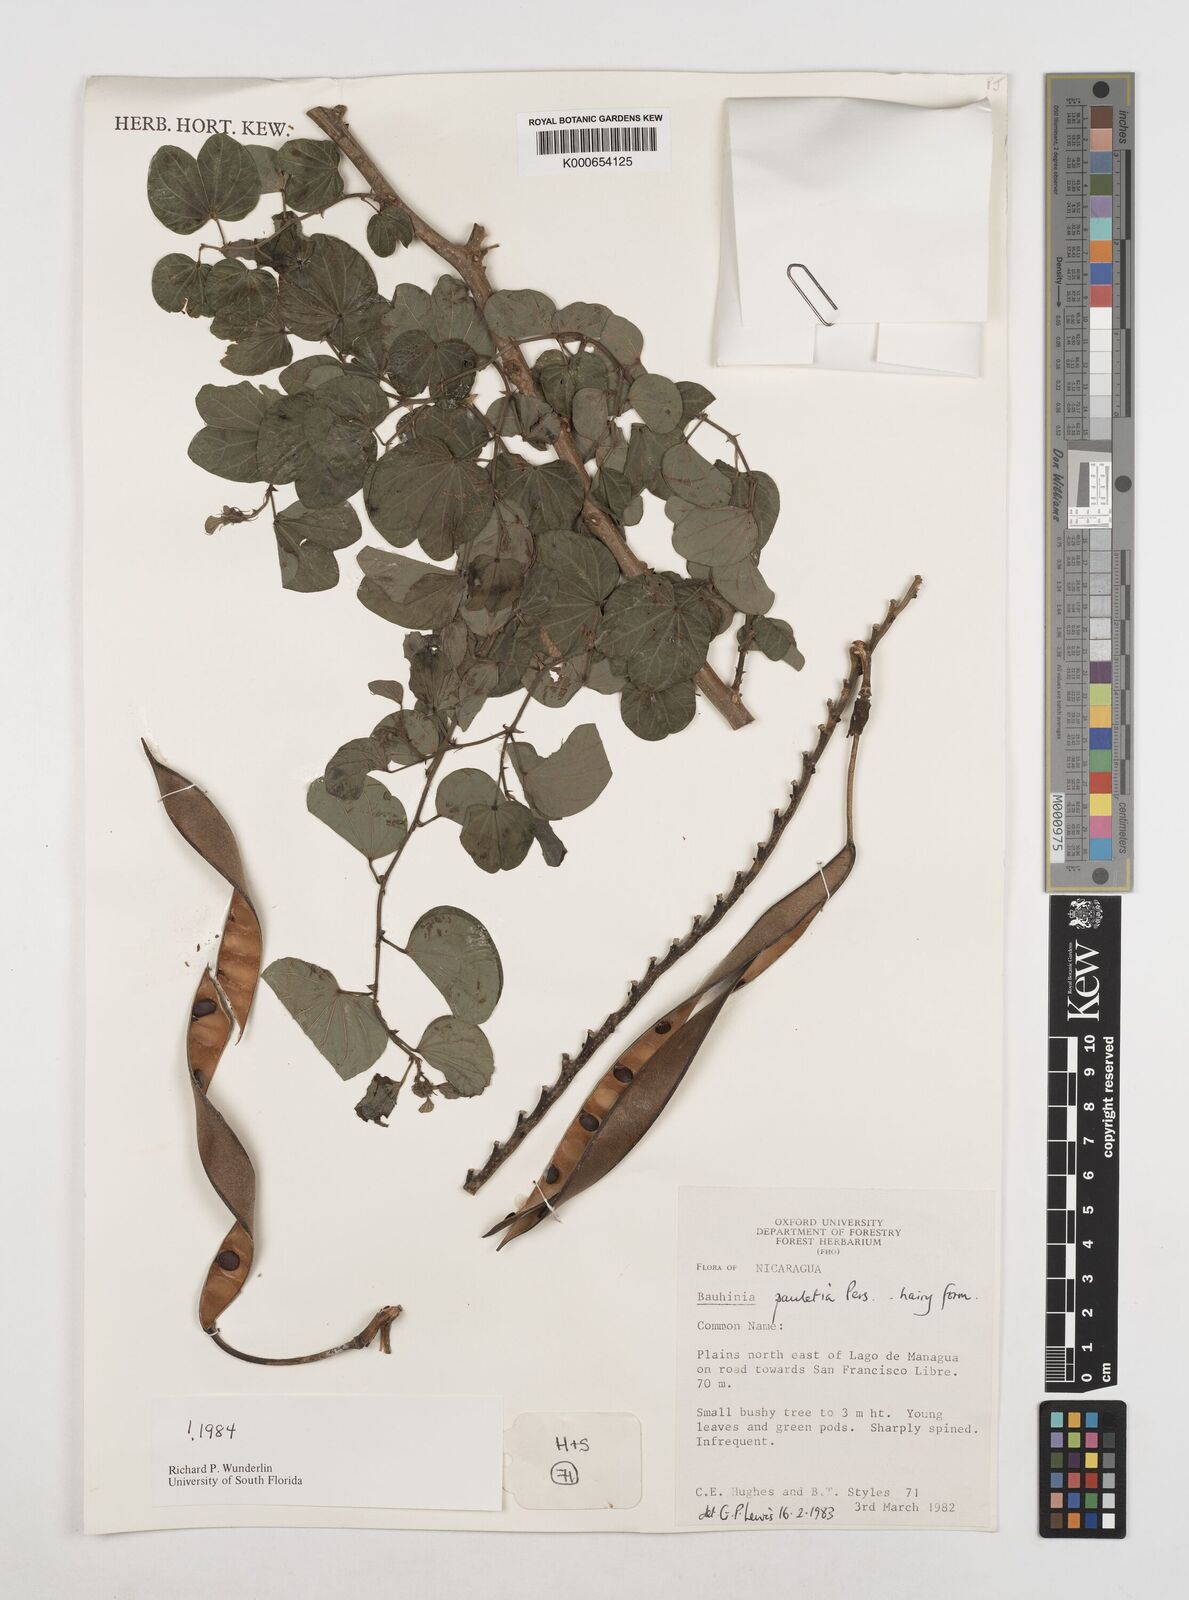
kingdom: Plantae
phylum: Tracheophyta
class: Magnoliopsida
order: Fabales
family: Fabaceae
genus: Bauhinia
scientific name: Bauhinia pauletia
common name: Railway-fence bauhinia
